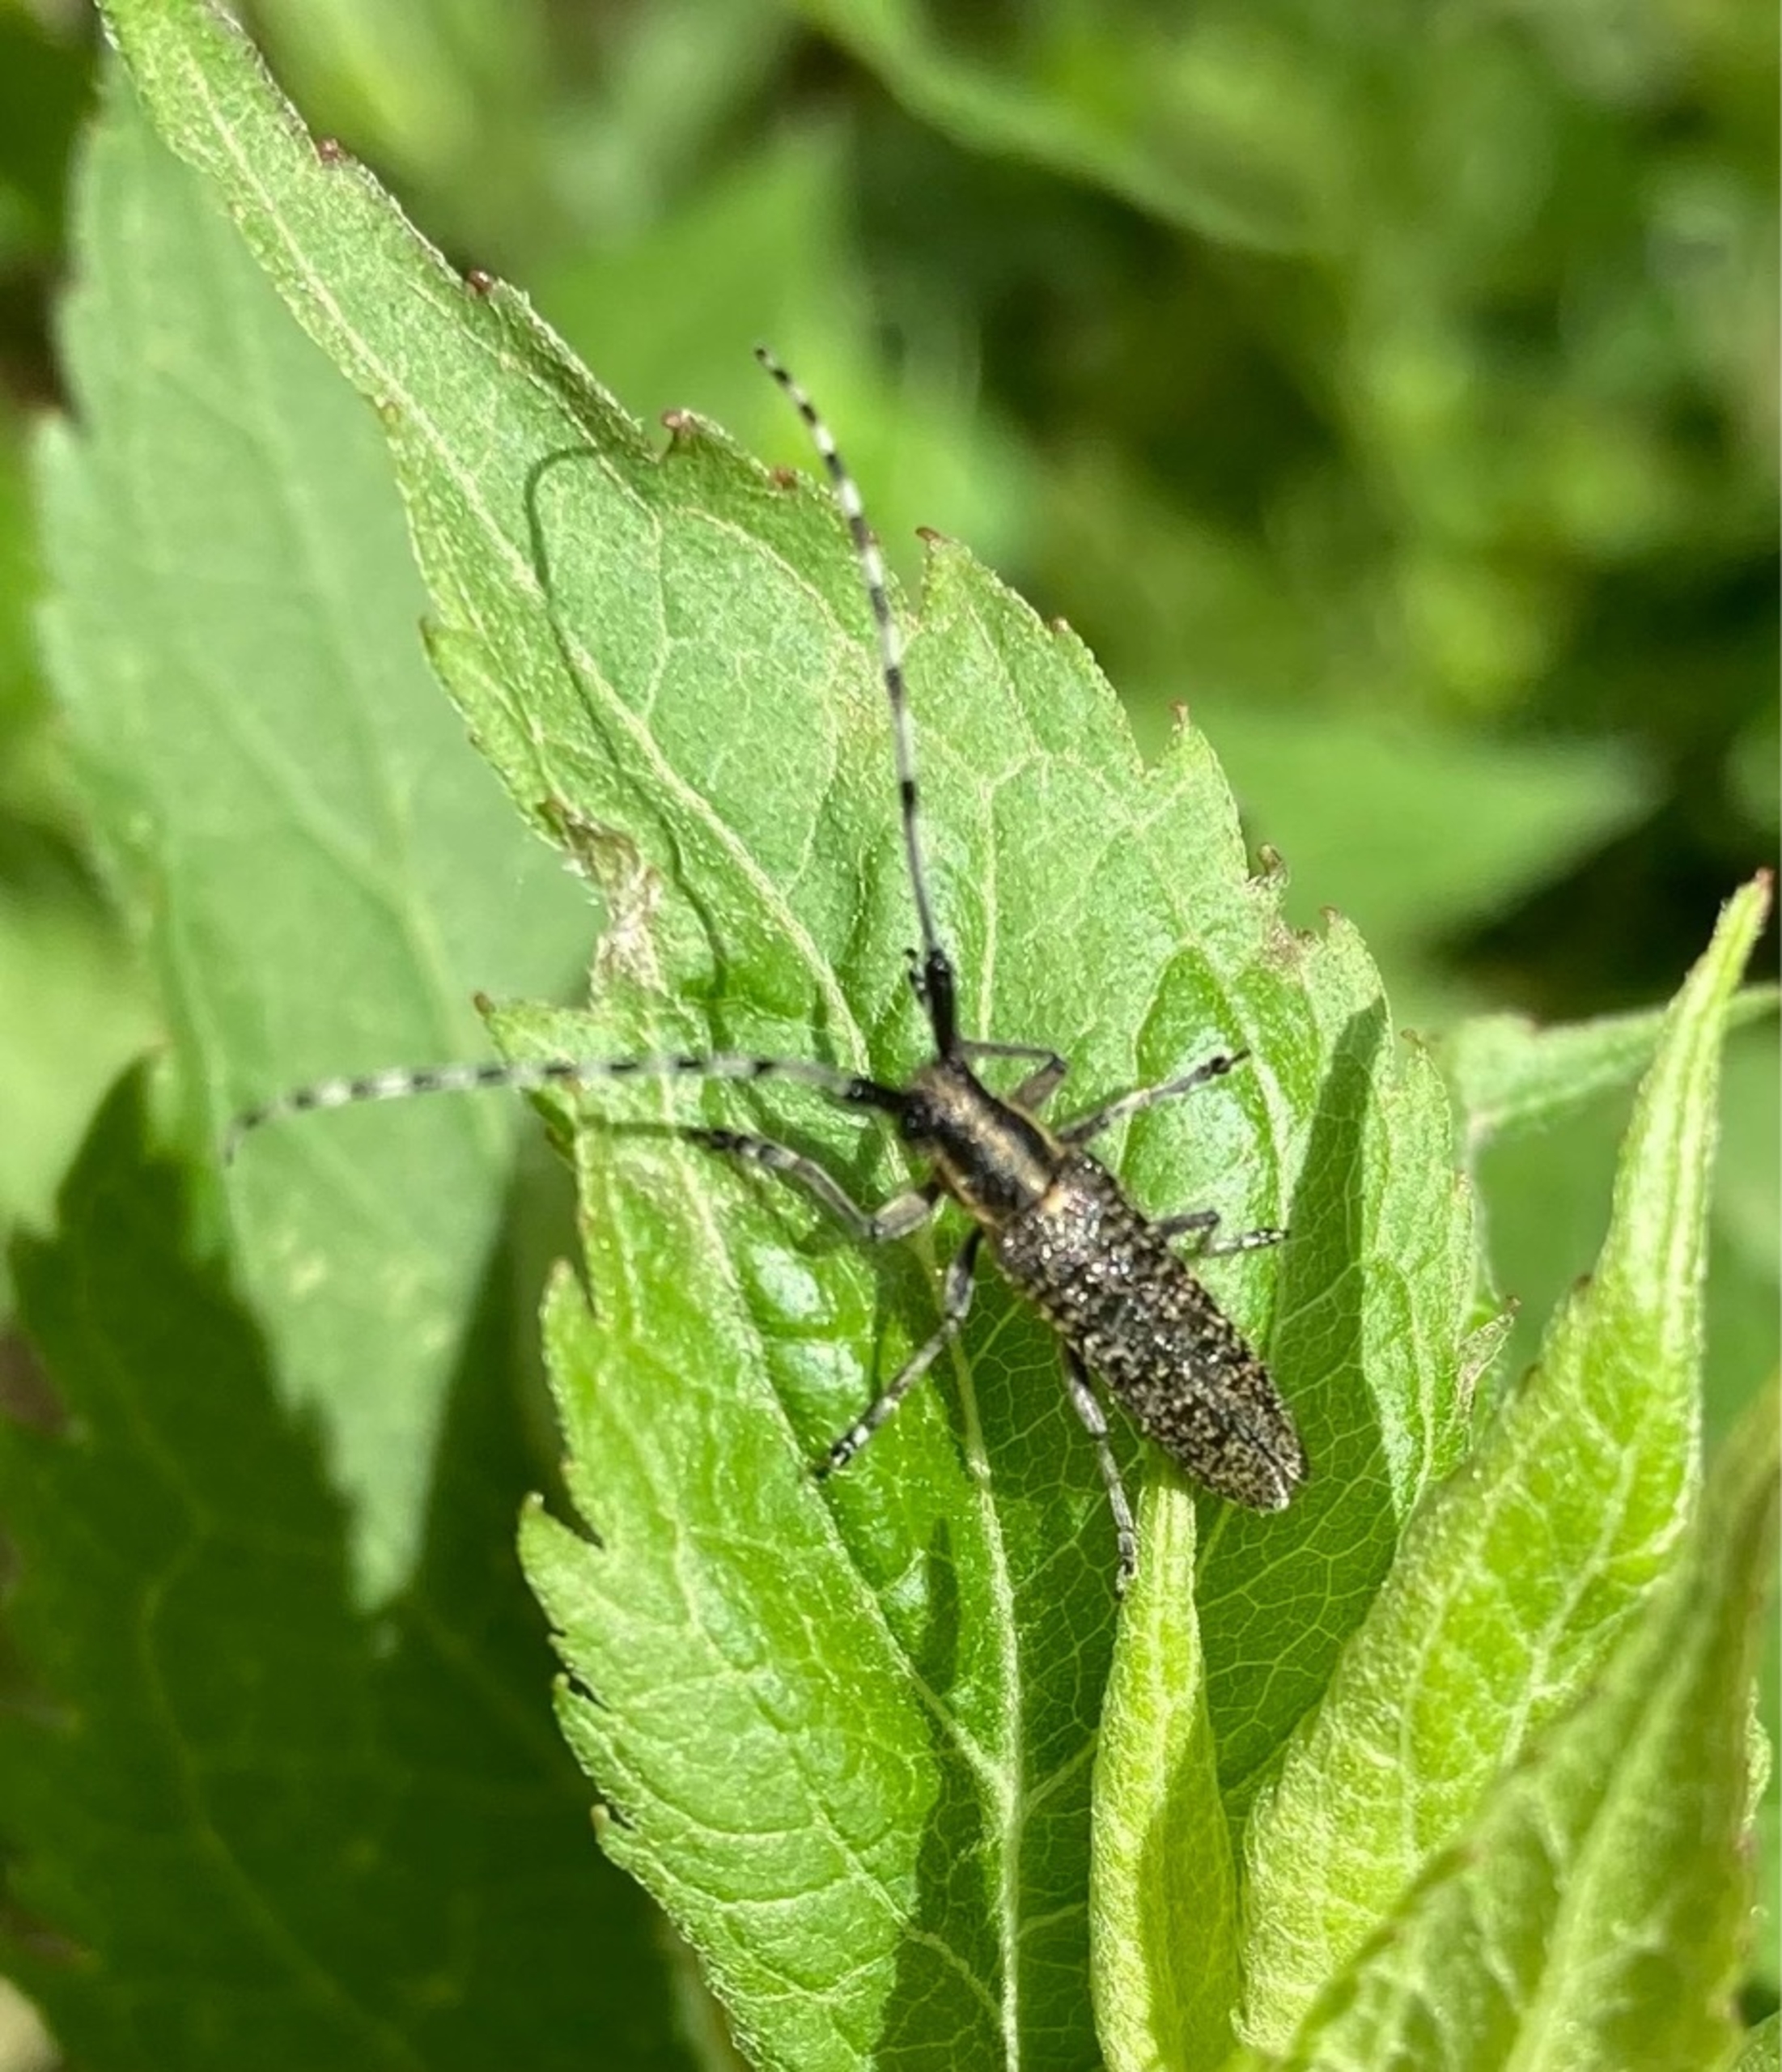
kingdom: Animalia
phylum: Arthropoda
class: Insecta
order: Coleoptera
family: Cerambycidae
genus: Agapanthia
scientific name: Agapanthia villosoviridescens
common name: Tidselbuk
